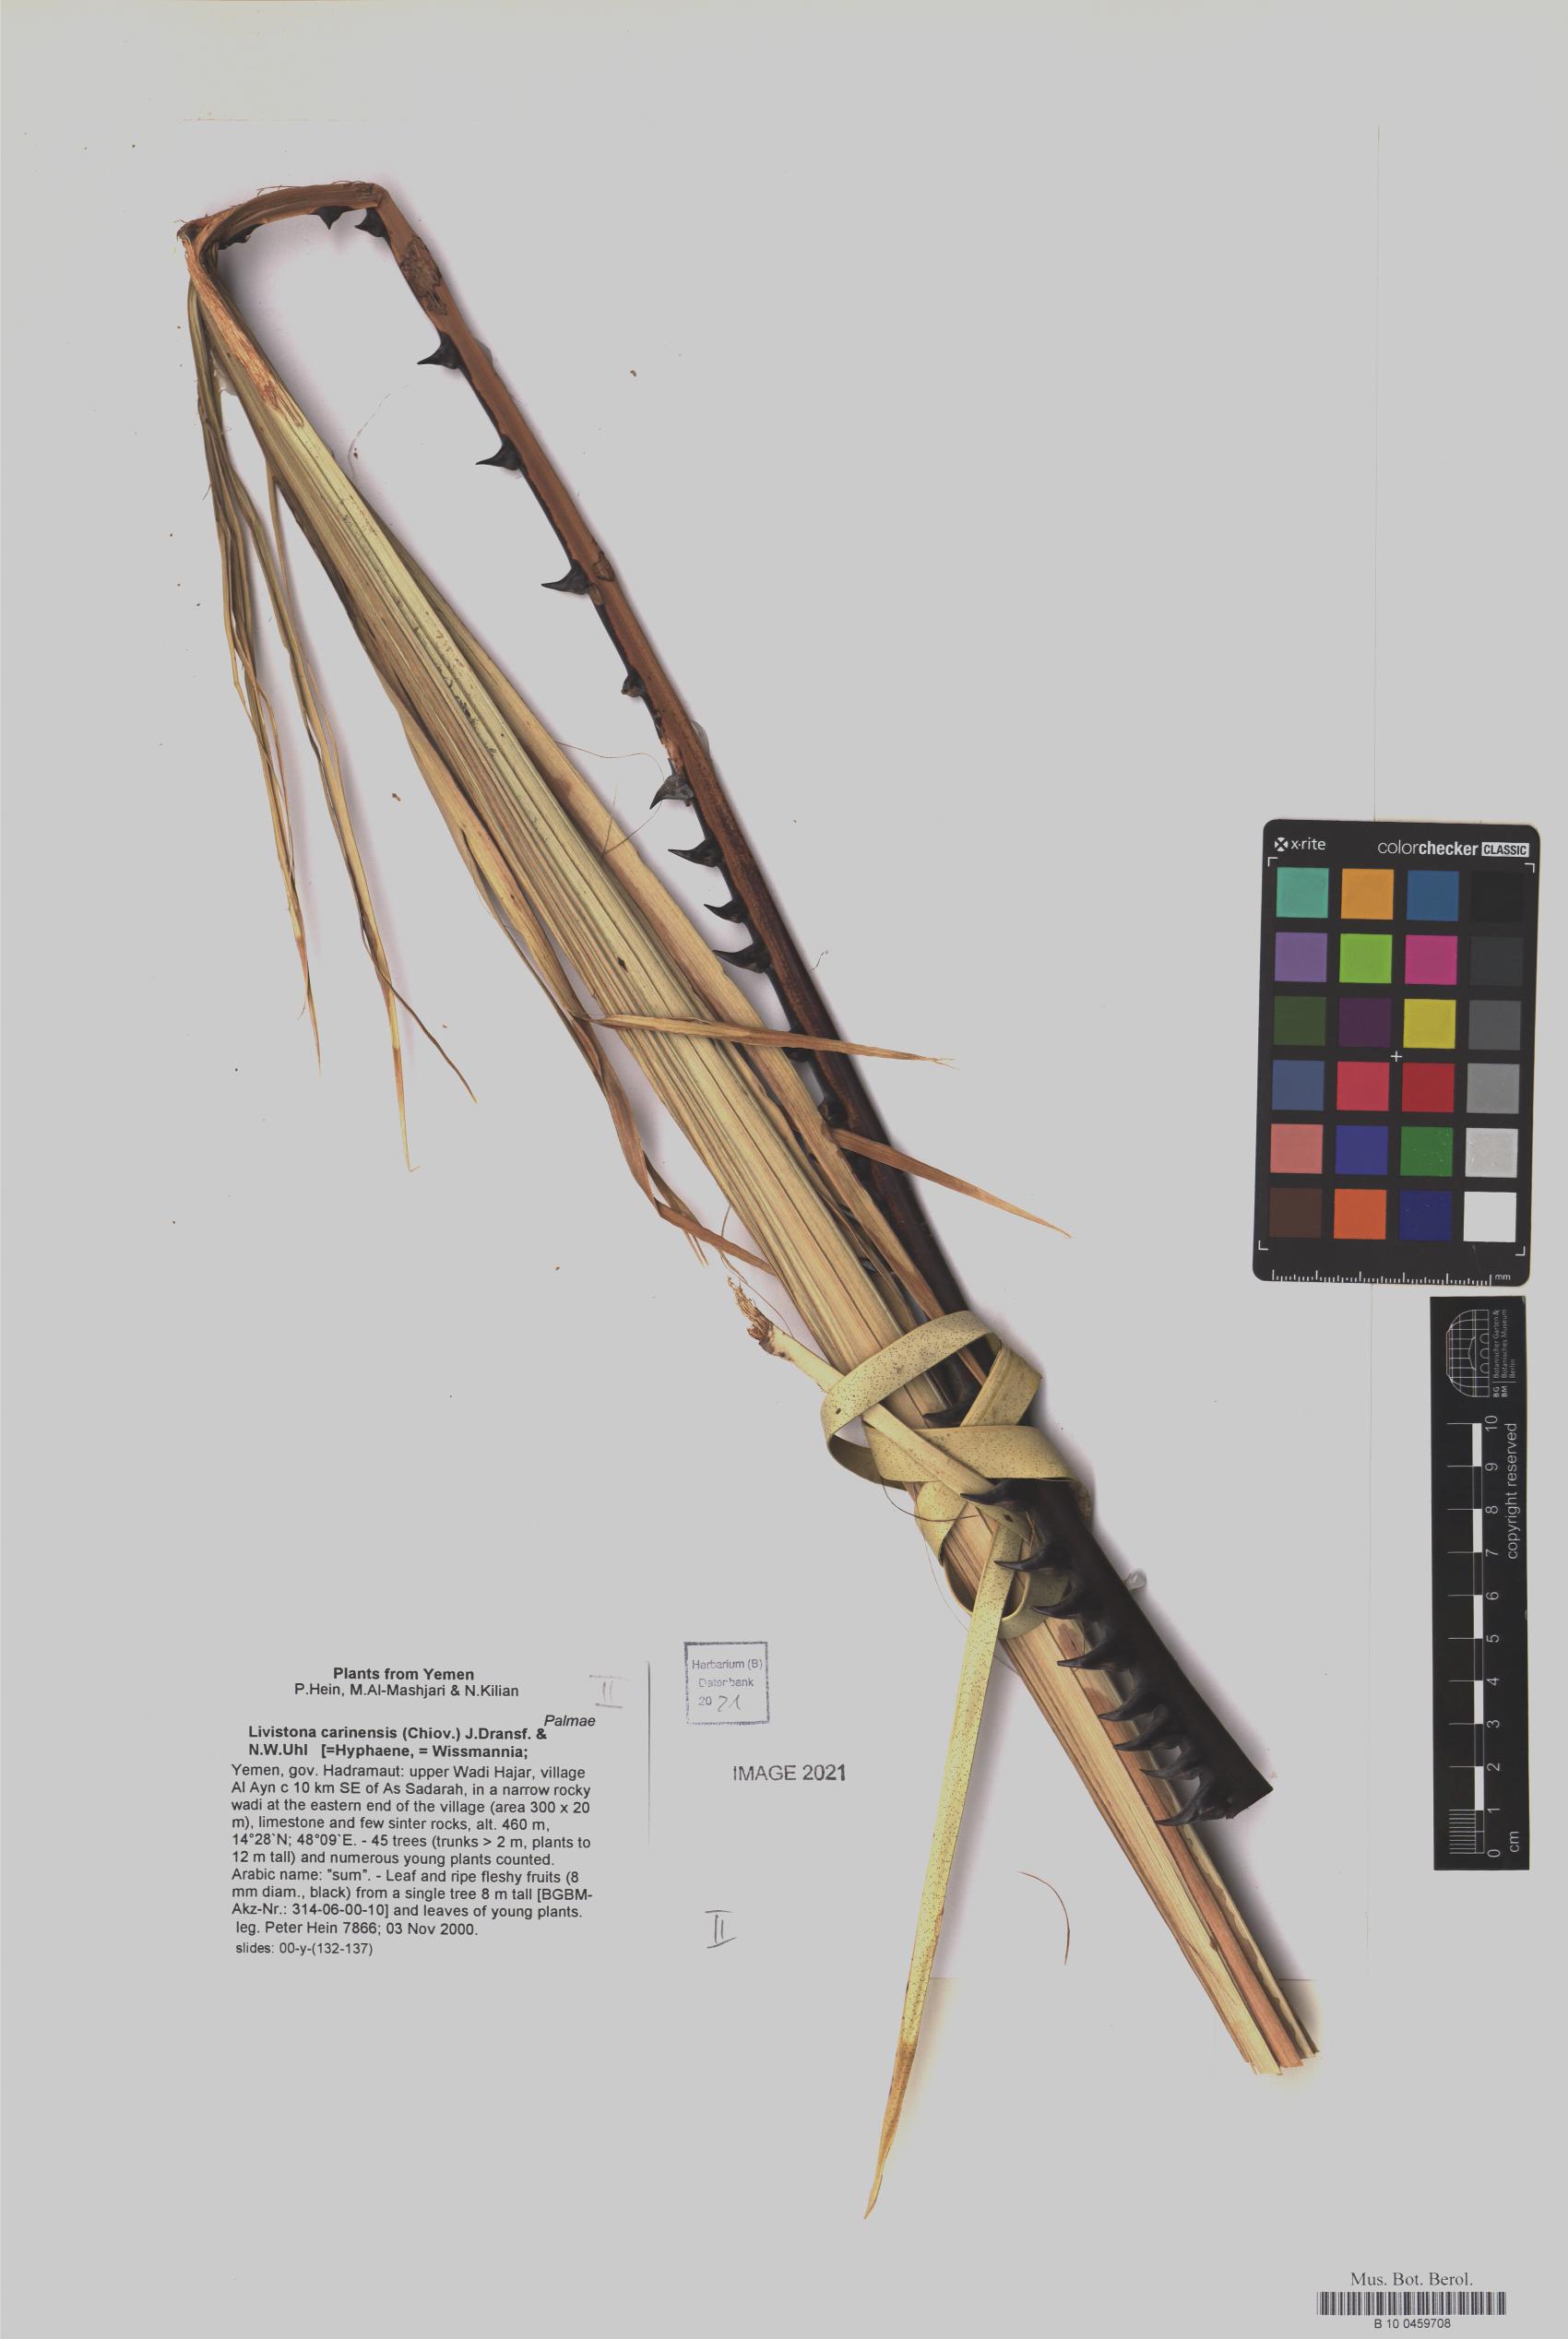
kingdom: Plantae
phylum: Tracheophyta
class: Liliopsida
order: Arecales
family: Arecaceae
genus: Livistona
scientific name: Livistona carinensis
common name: Bankoualé palm
